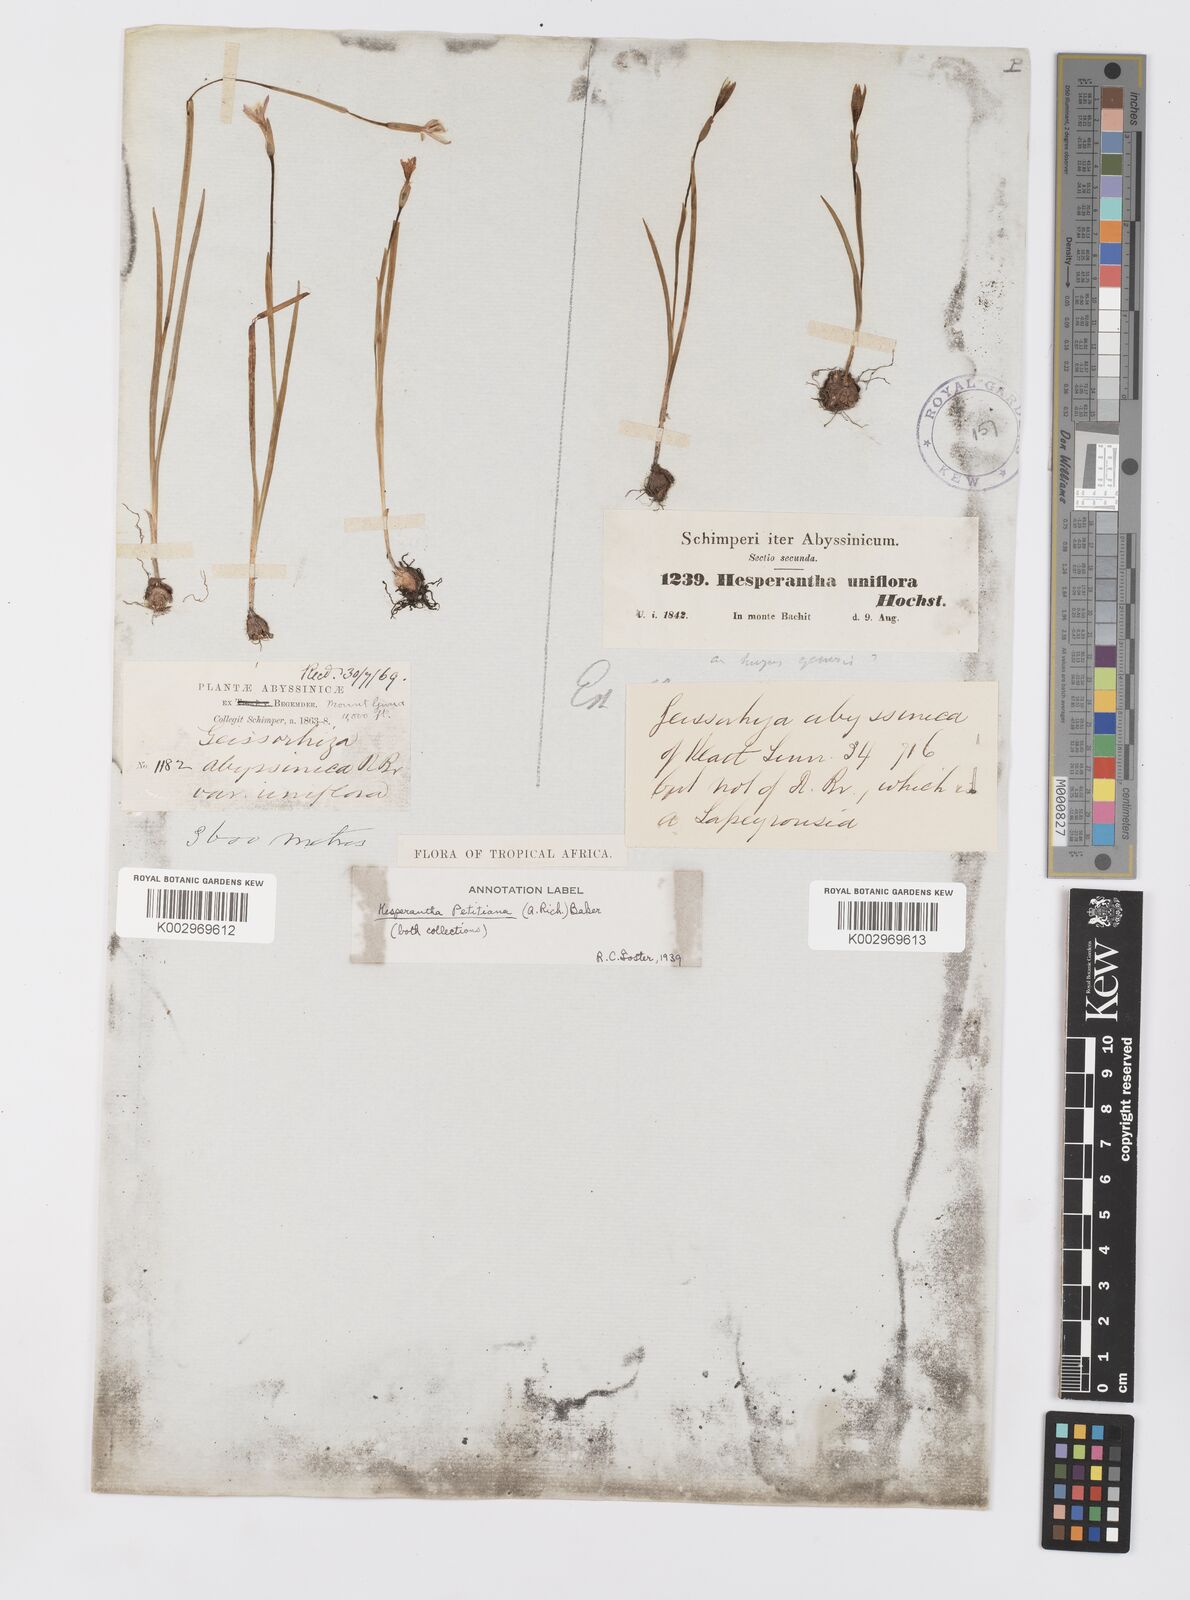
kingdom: Plantae
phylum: Tracheophyta
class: Liliopsida
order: Asparagales
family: Iridaceae
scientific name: Iridaceae
